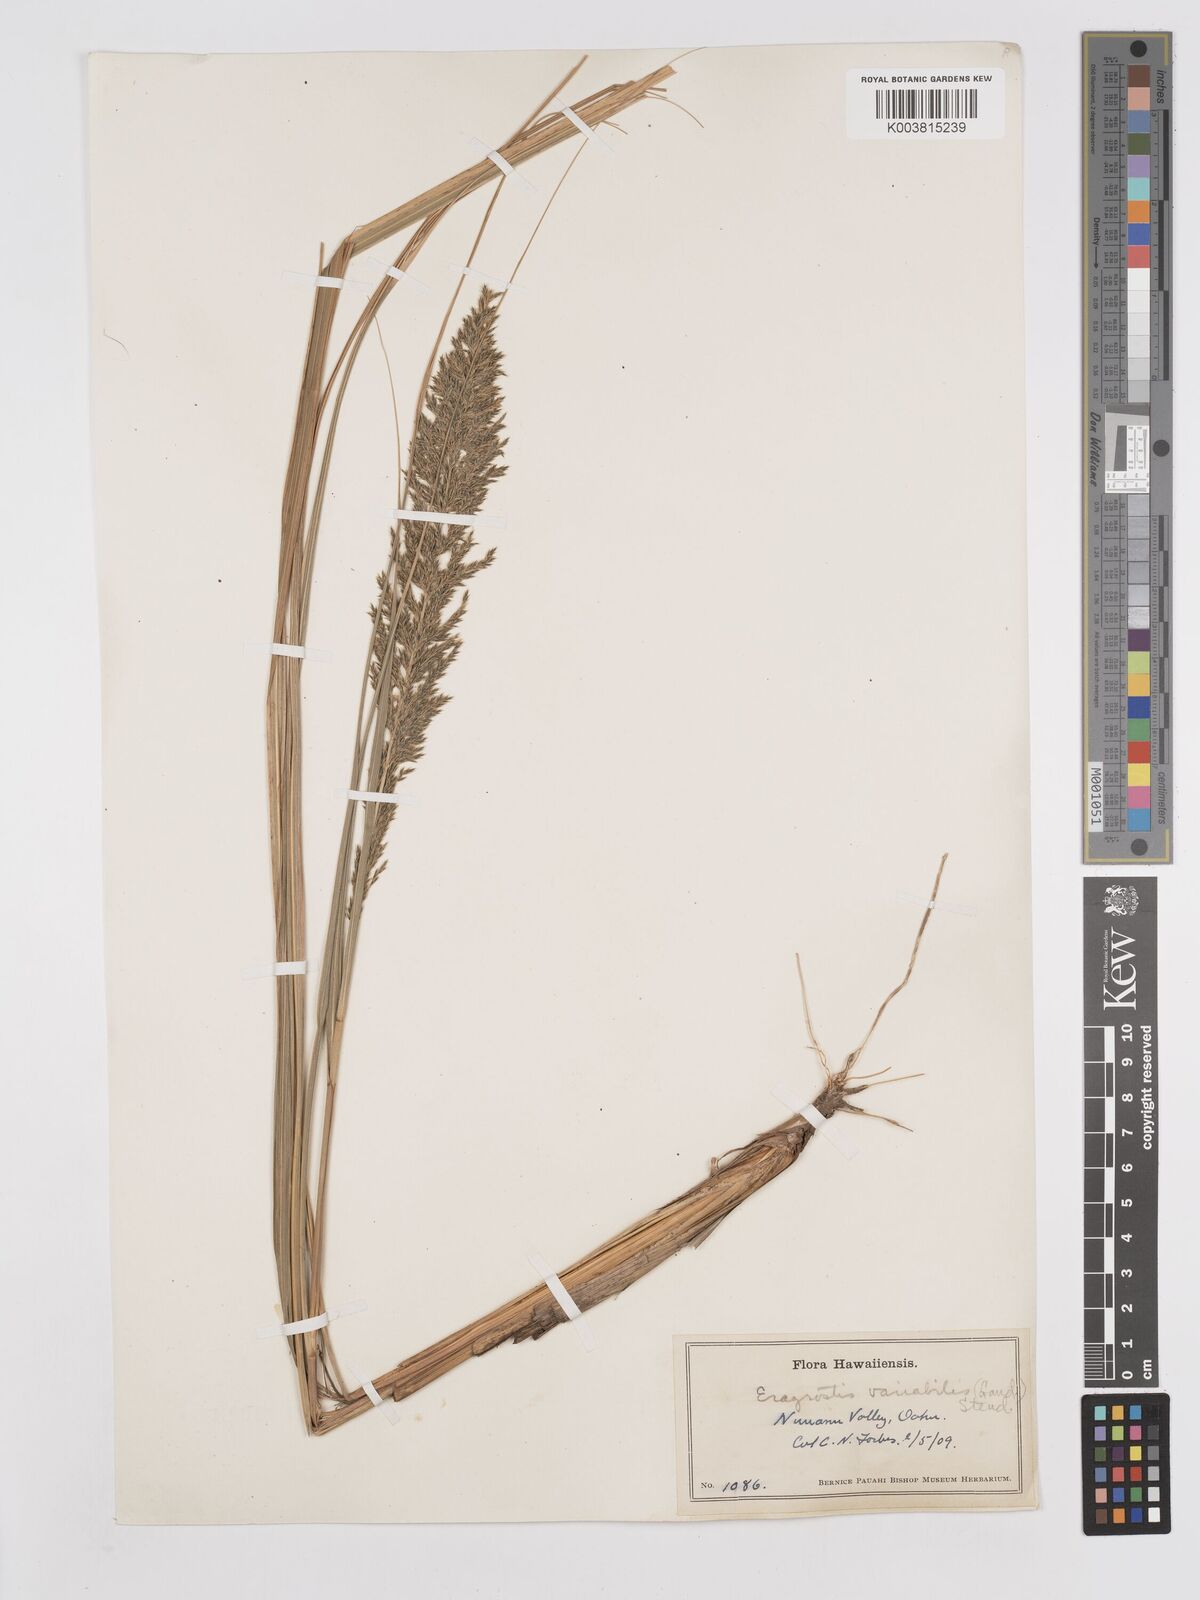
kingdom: Plantae
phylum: Tracheophyta
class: Liliopsida
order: Poales
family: Poaceae
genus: Eragrostis
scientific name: Eragrostis variabilis
